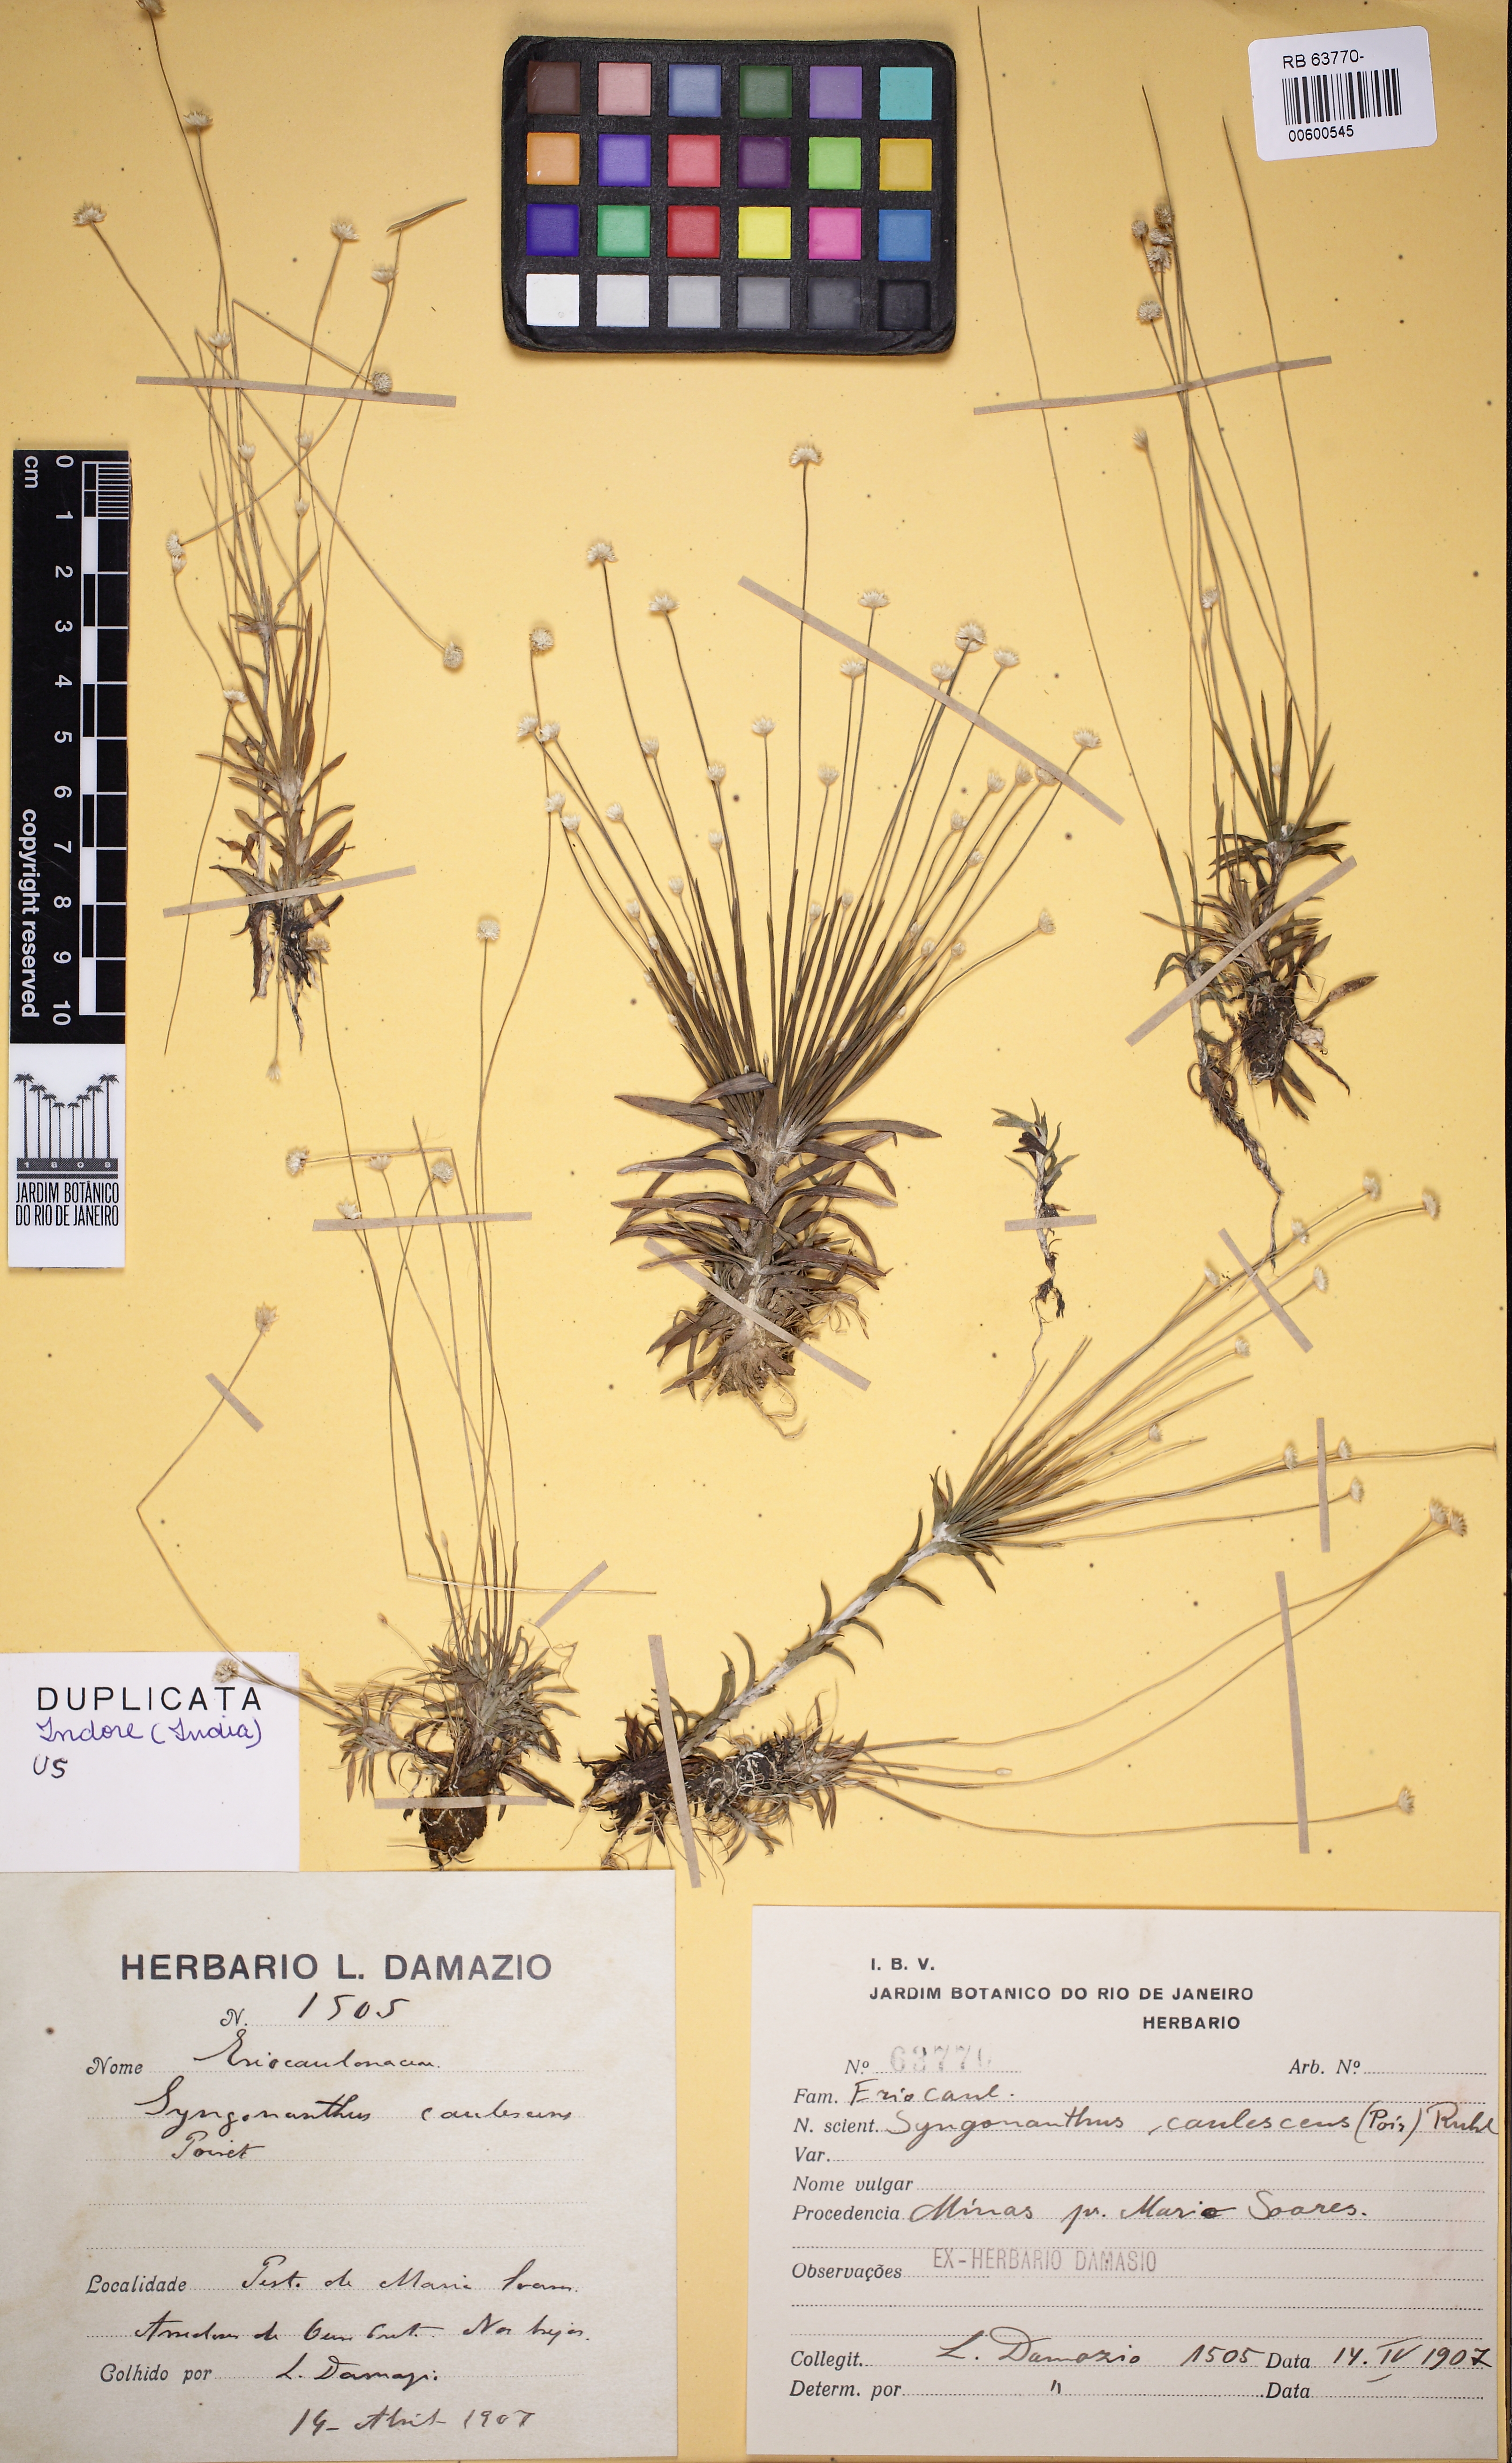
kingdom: Plantae
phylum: Tracheophyta
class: Liliopsida
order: Poales
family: Eriocaulaceae
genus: Syngonanthus
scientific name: Syngonanthus caulescens
